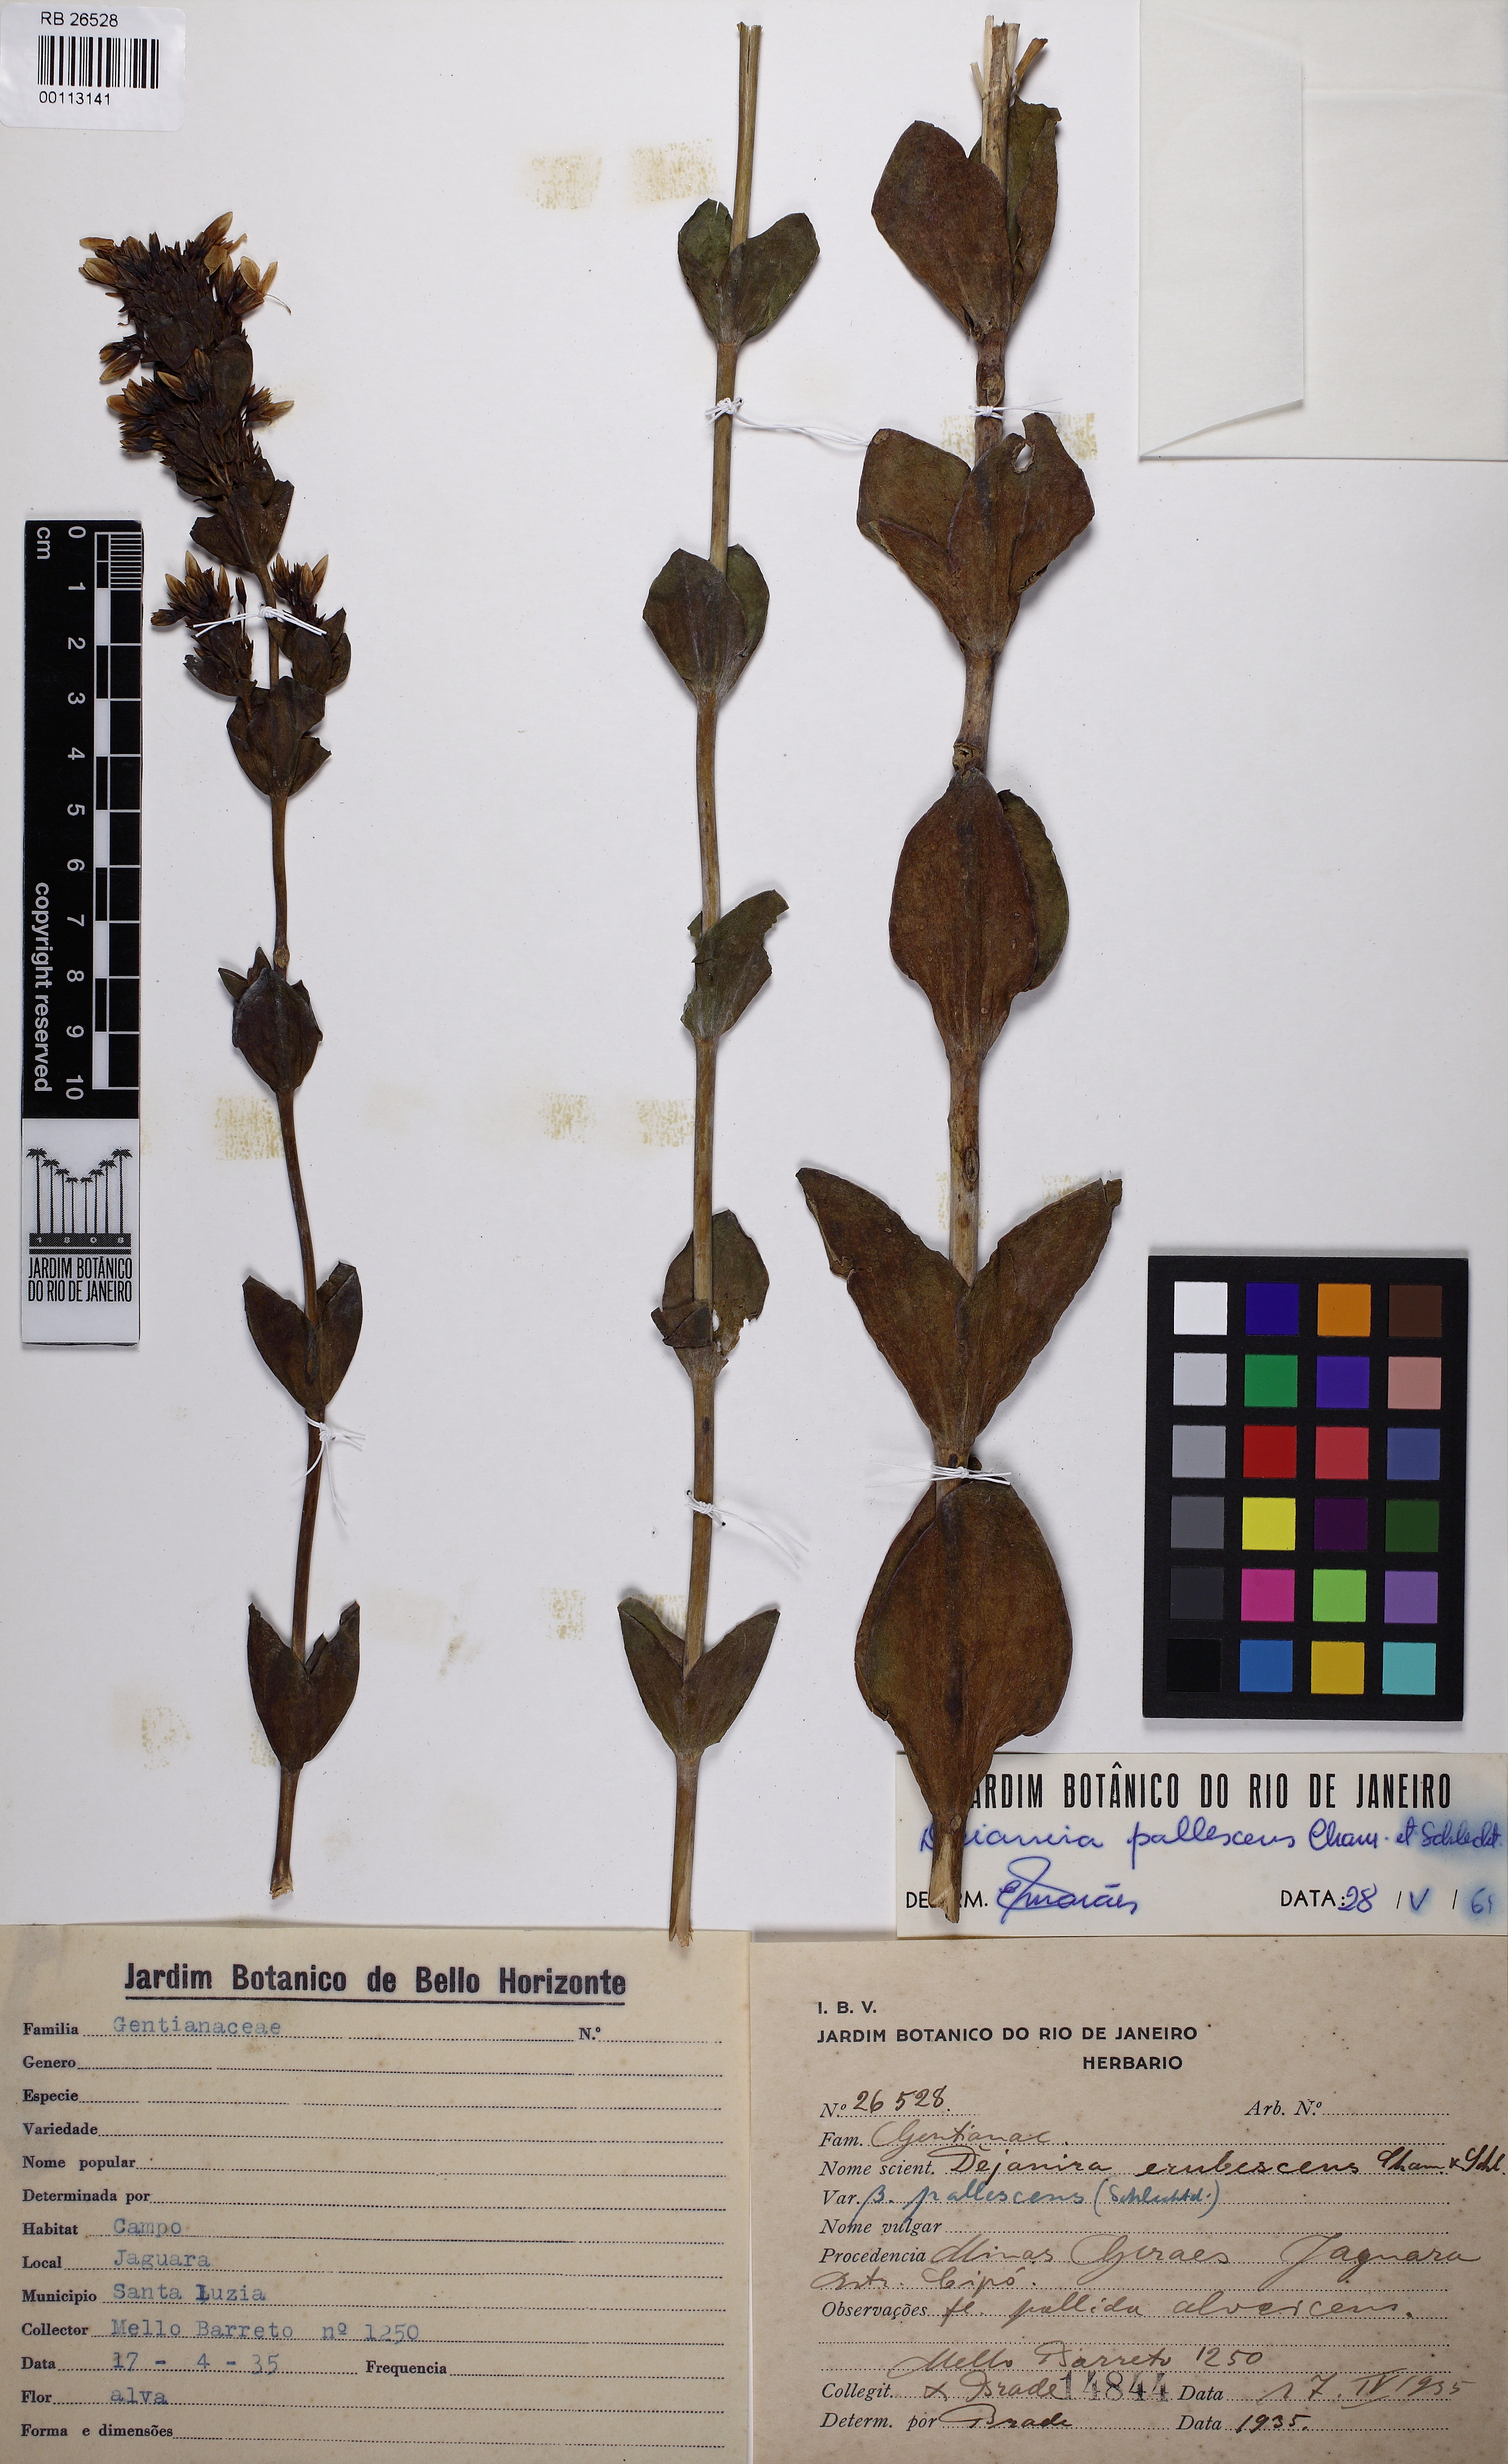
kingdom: Plantae
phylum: Tracheophyta
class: Magnoliopsida
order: Gentianales
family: Gentianaceae
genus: Deianira
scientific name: Deianira pallescens
